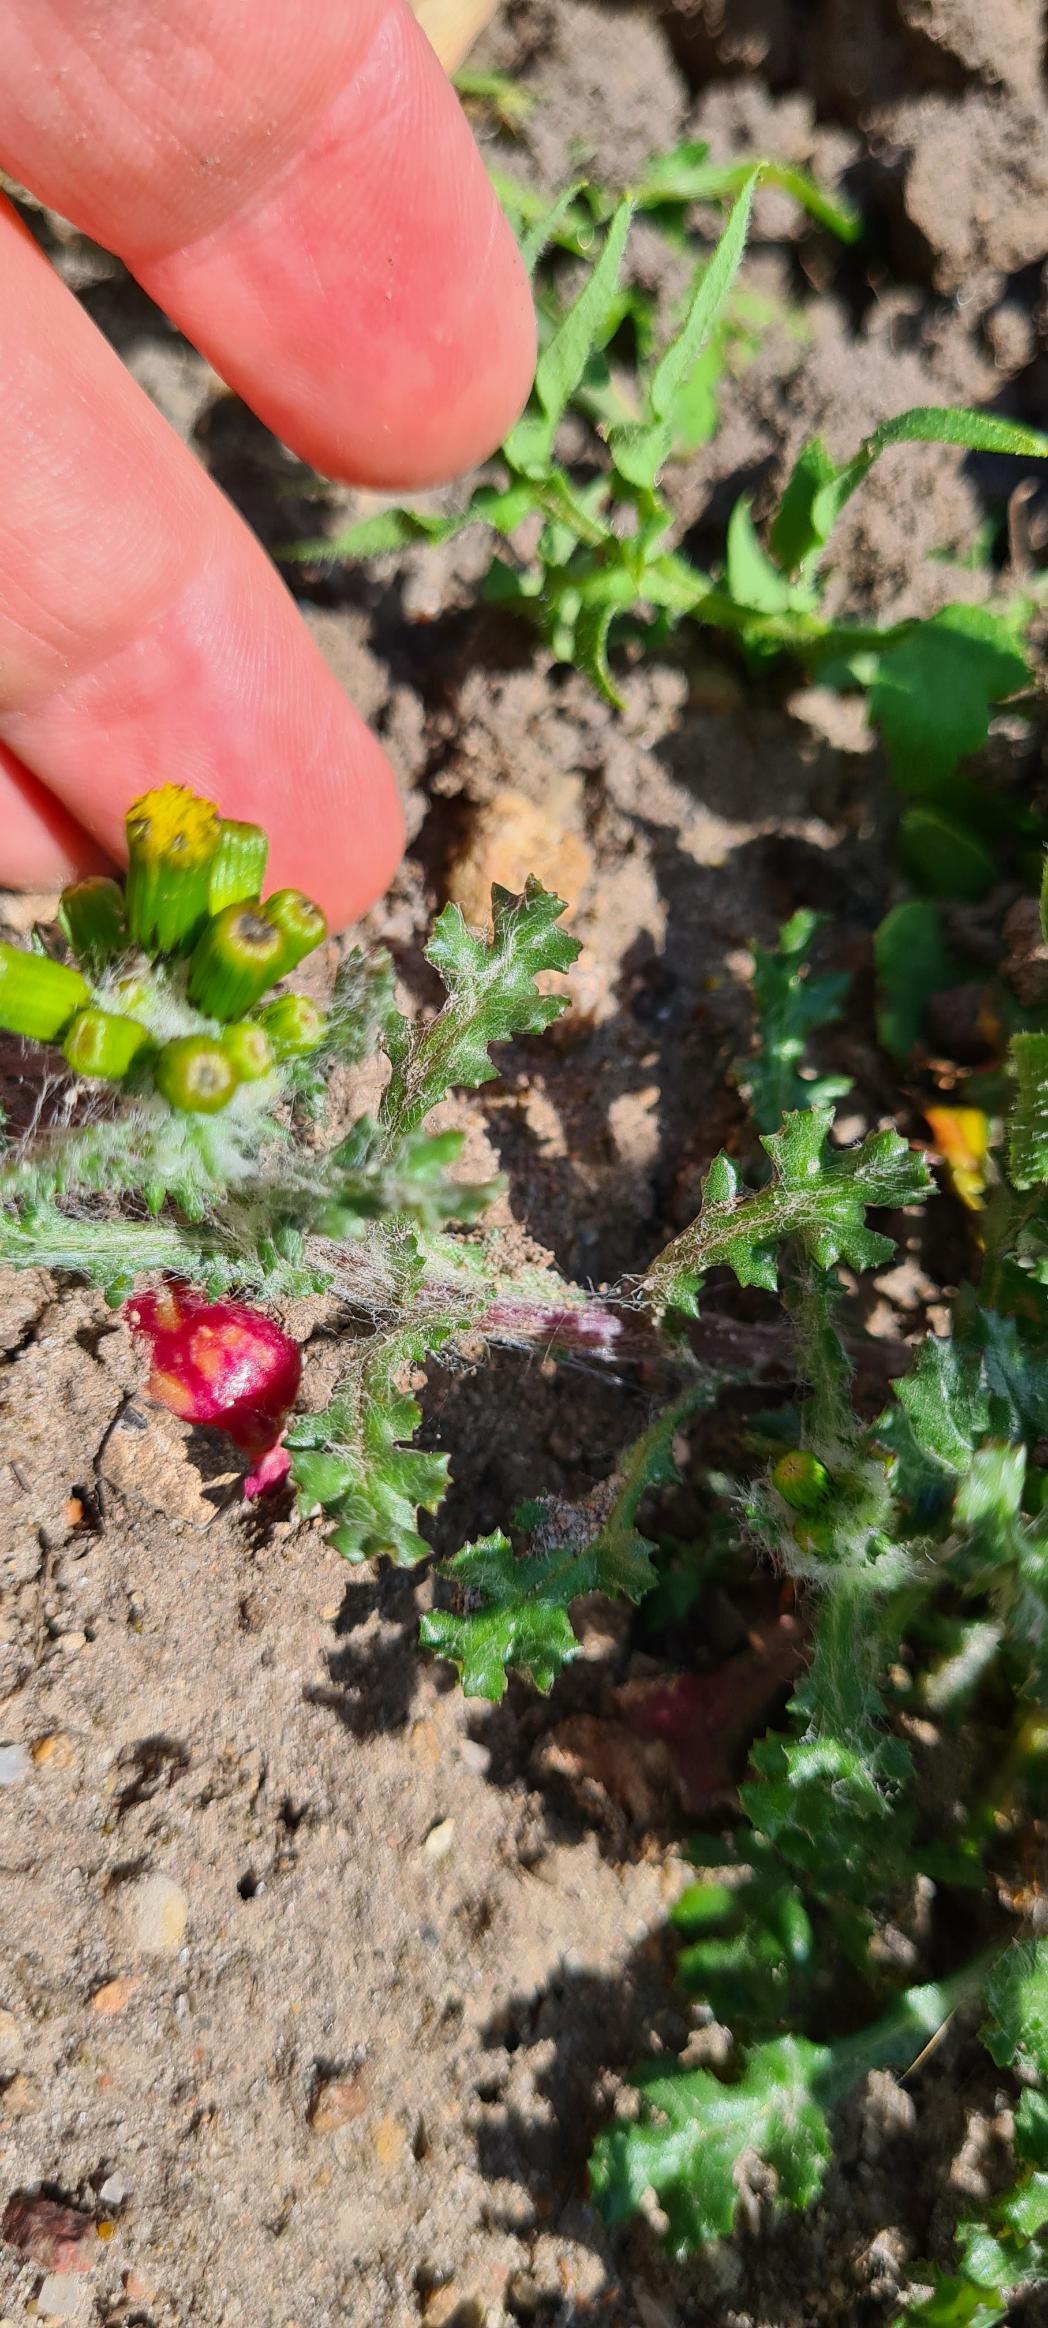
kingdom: Plantae
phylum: Tracheophyta
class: Magnoliopsida
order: Asterales
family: Asteraceae
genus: Senecio
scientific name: Senecio leucanthemifolius
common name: Vår-brandbæger
